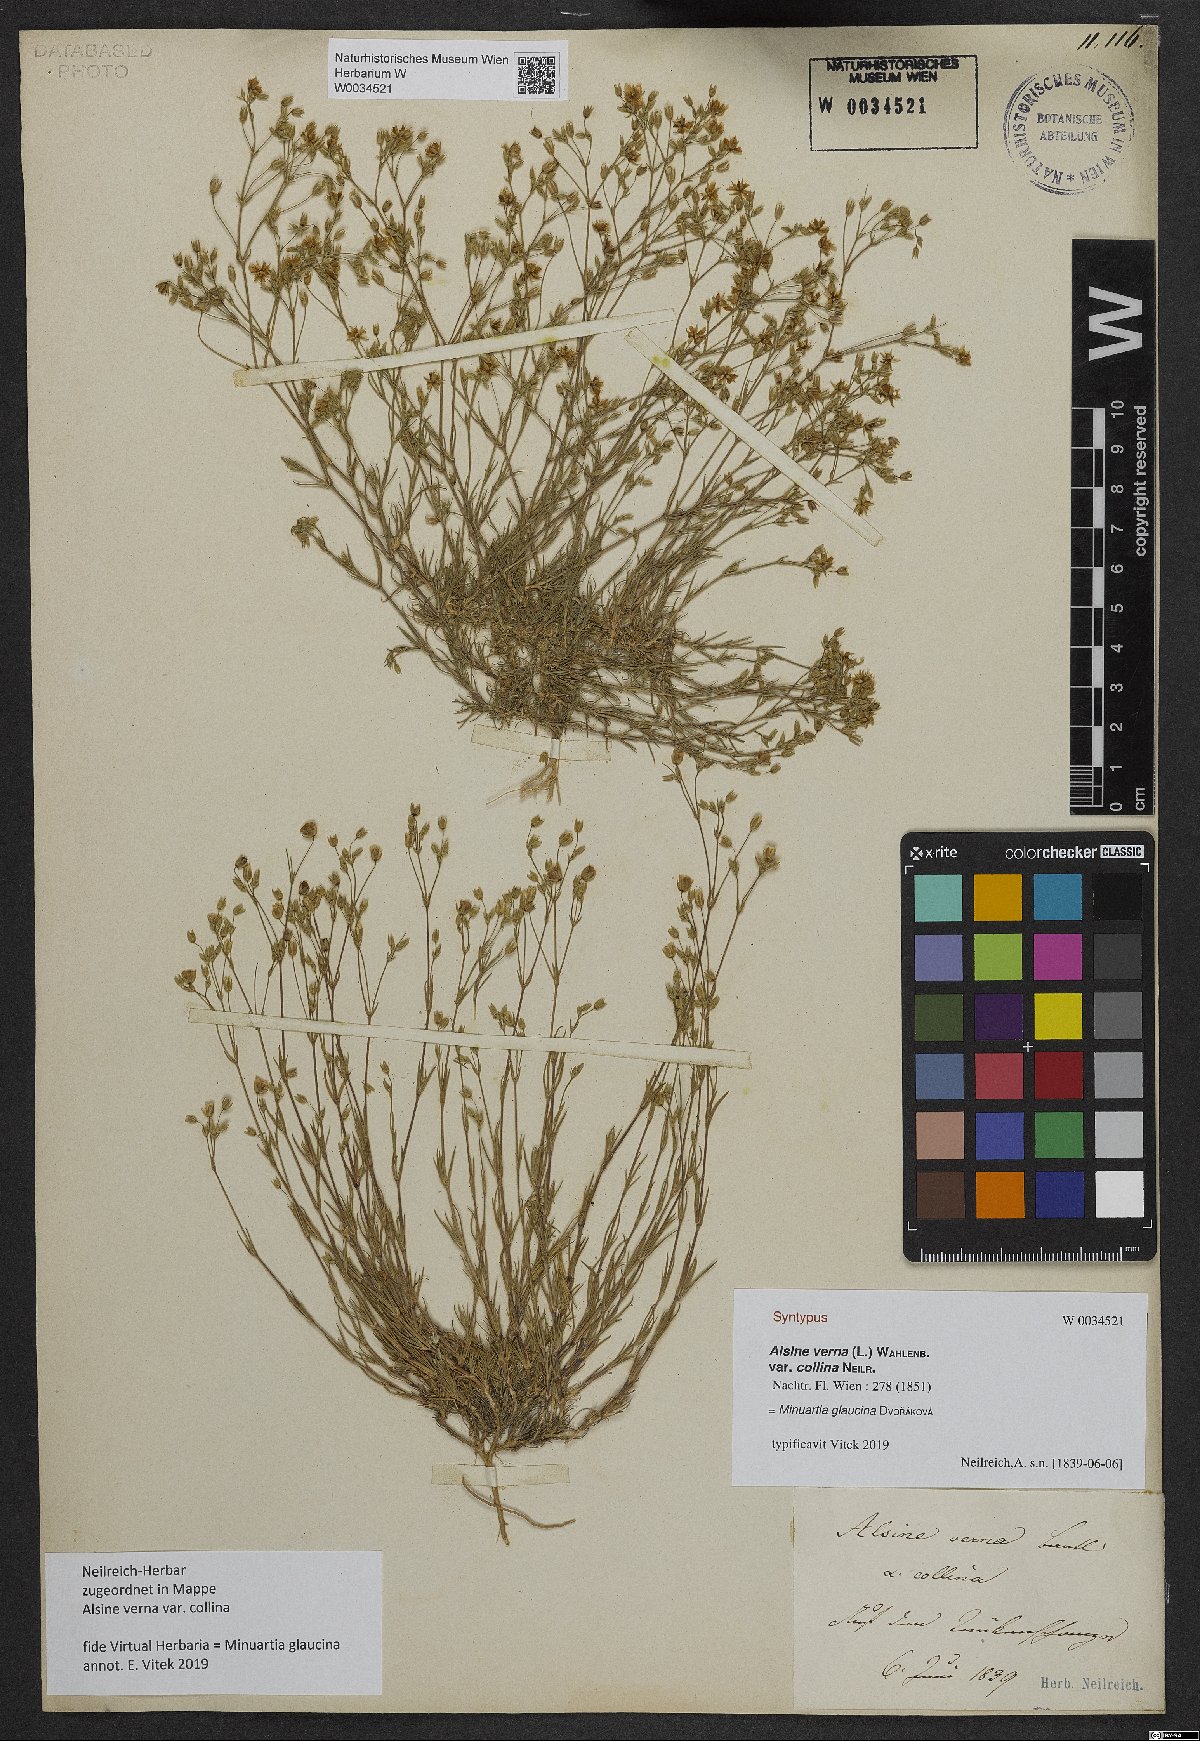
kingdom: Plantae
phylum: Tracheophyta
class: Magnoliopsida
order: Caryophyllales
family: Caryophyllaceae
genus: Sabulina
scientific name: Sabulina glaucina
